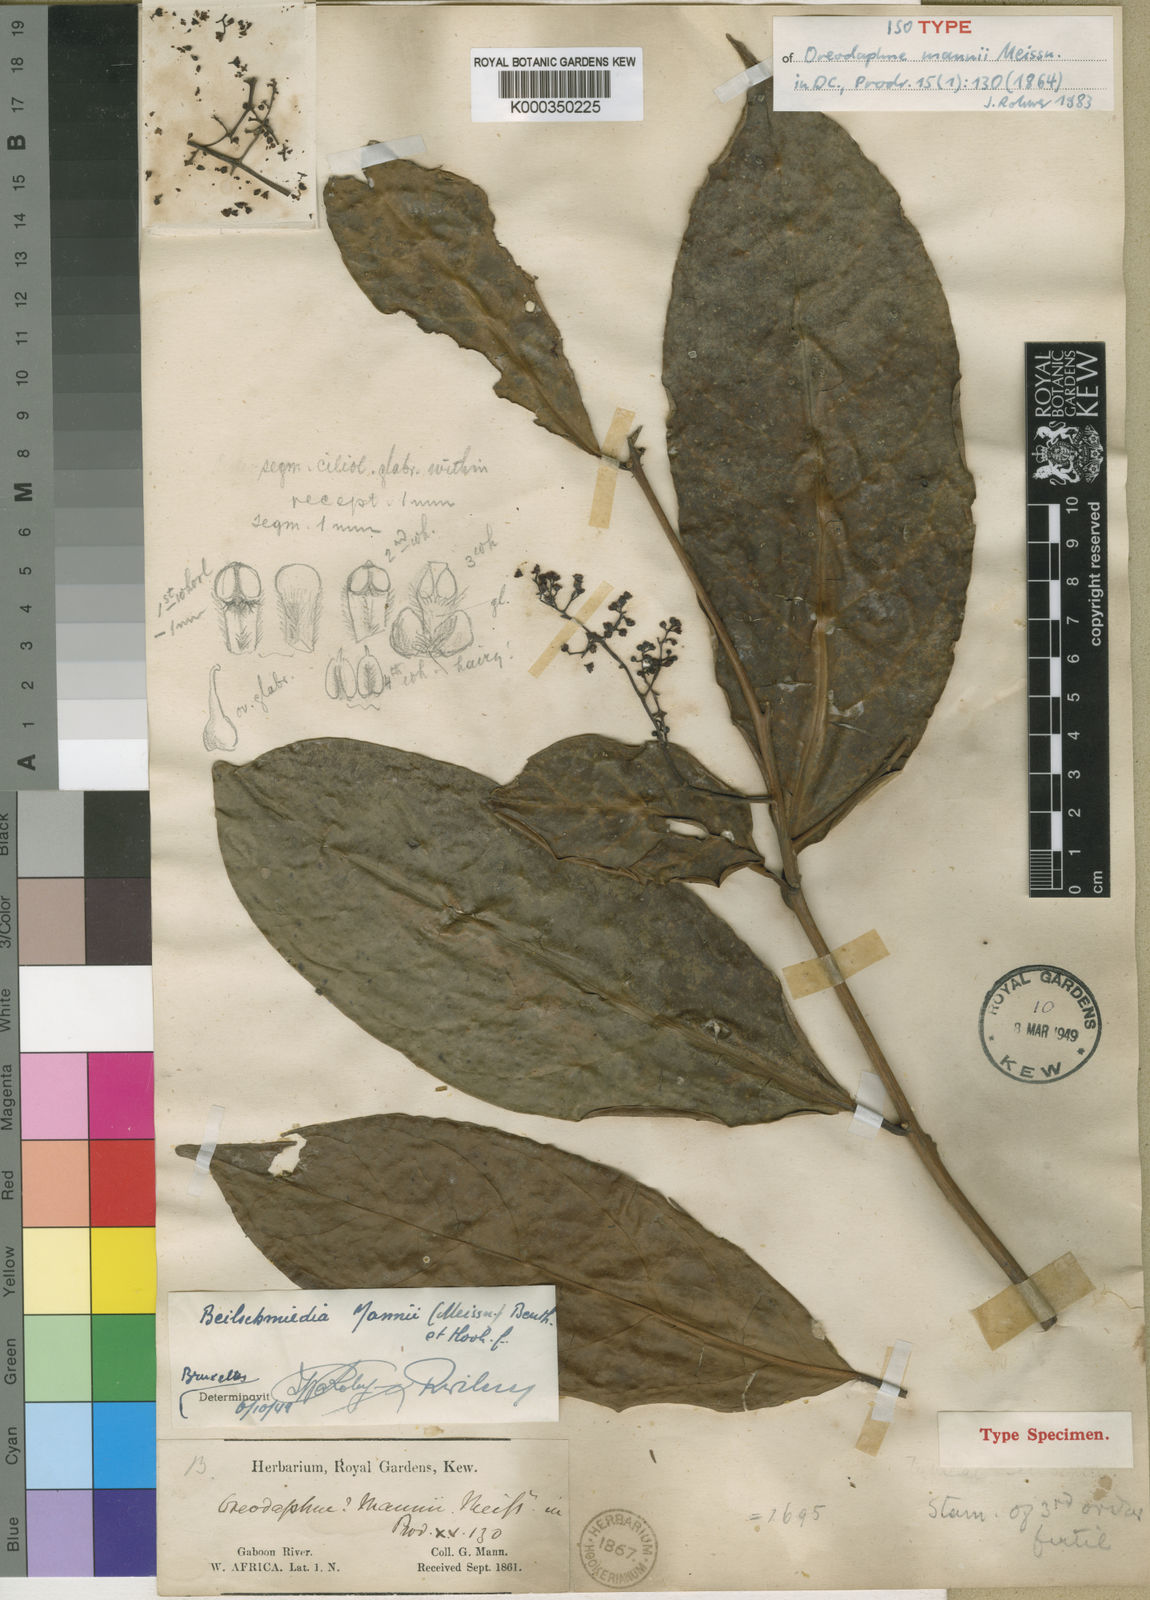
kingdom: Plantae
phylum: Tracheophyta
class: Magnoliopsida
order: Laurales
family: Lauraceae
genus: Beilschmiedia
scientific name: Beilschmiedia mannii
